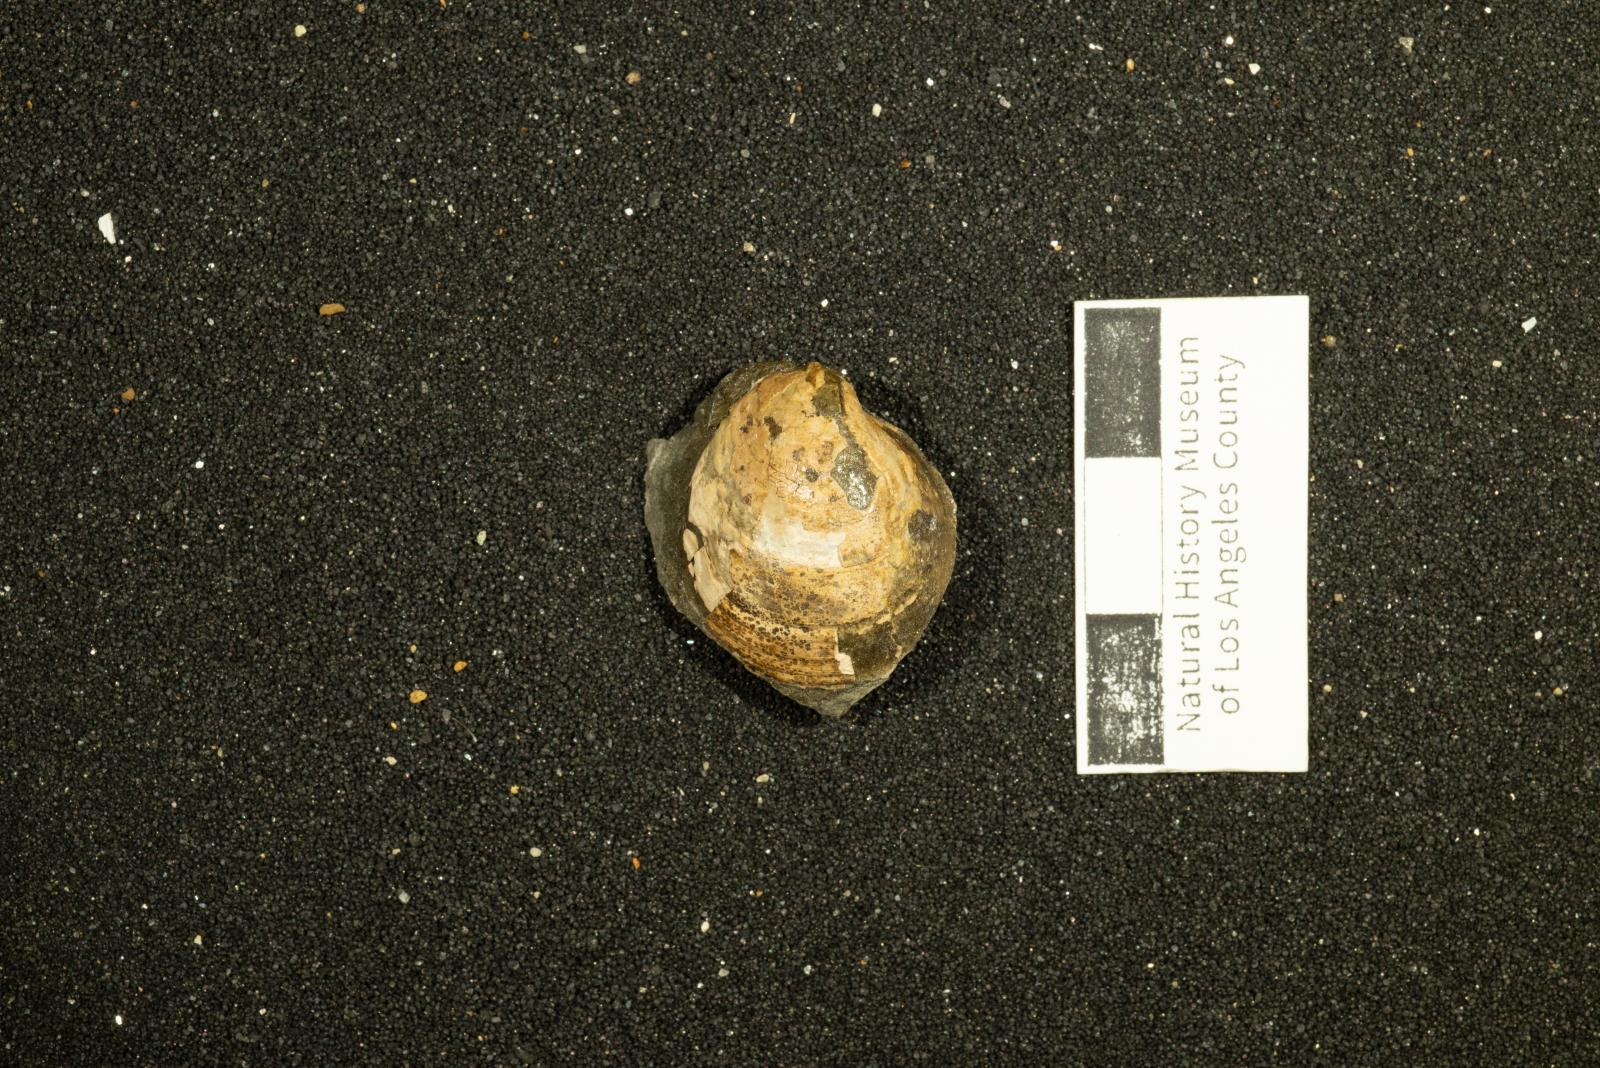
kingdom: Animalia
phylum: Mollusca
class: Bivalvia
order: Venerida
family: Arcticidae
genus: Tenea
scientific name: Tenea
